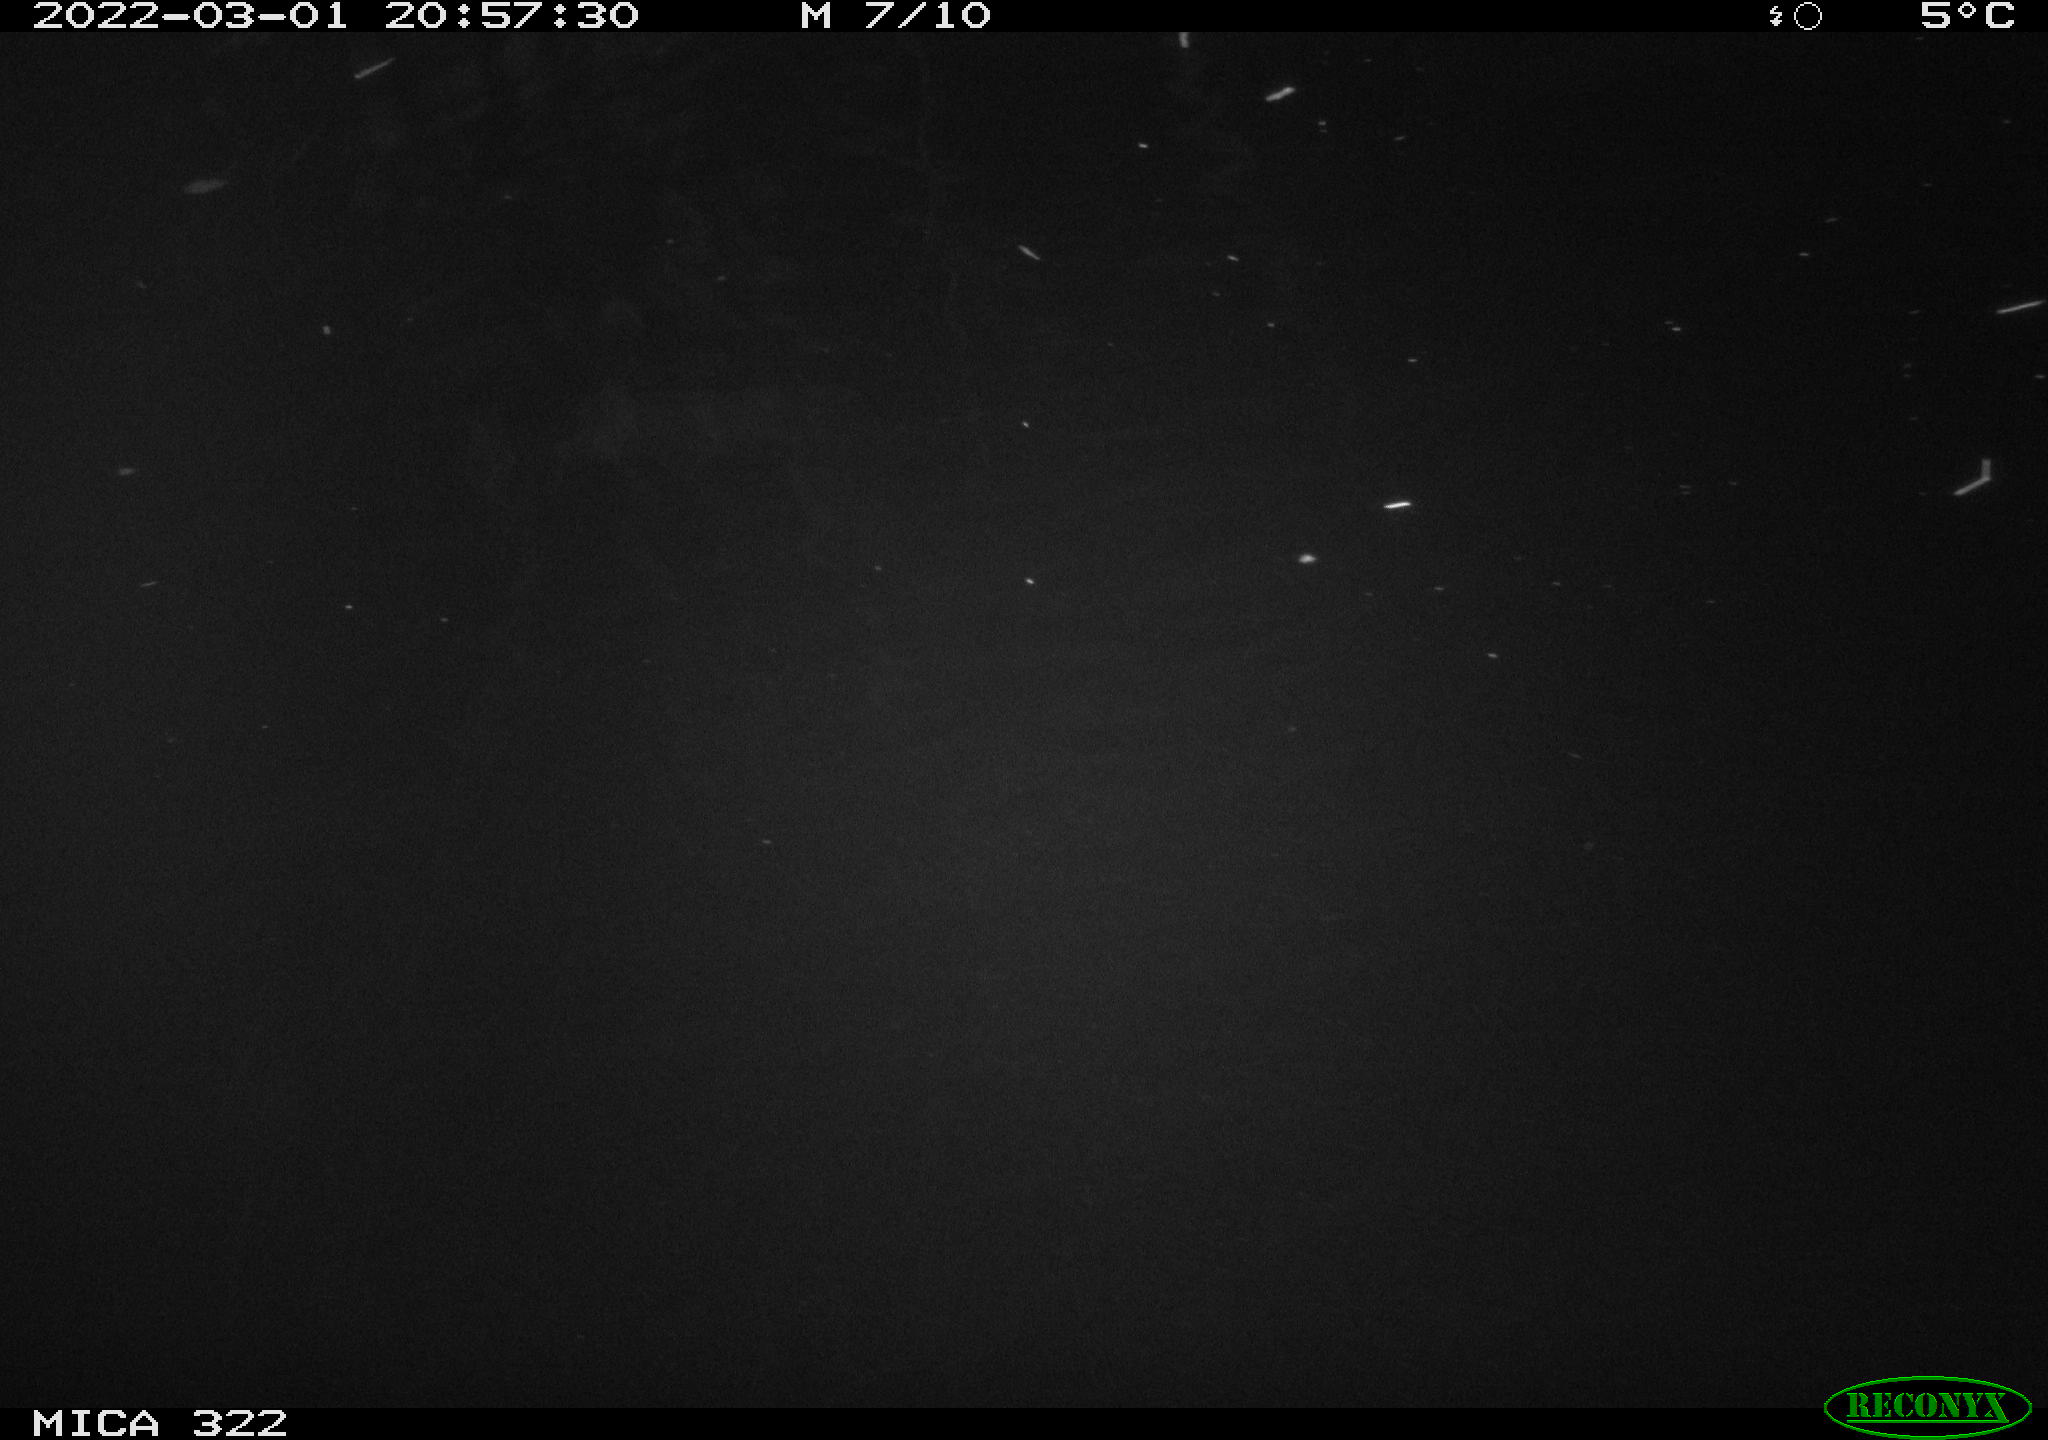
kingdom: Animalia
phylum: Chordata
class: Mammalia
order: Rodentia
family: Muridae
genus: Rattus
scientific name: Rattus norvegicus
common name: Brown rat
